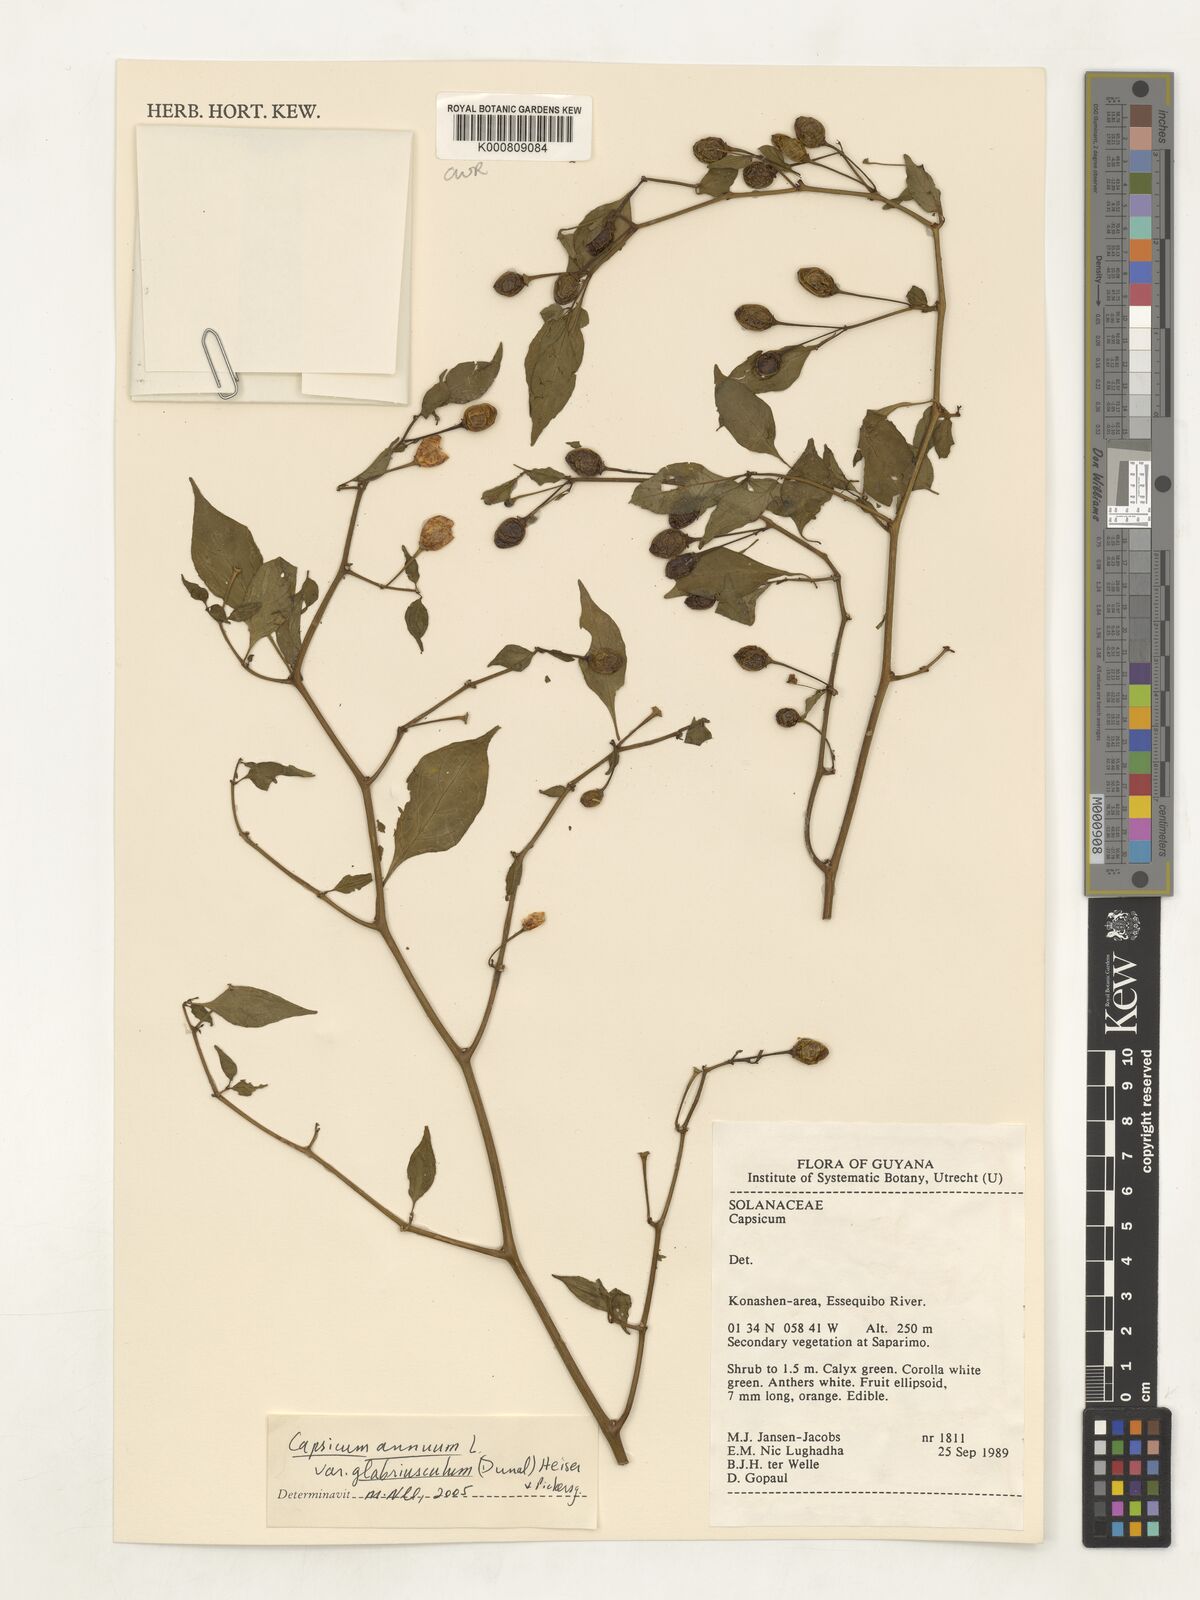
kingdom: Plantae
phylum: Tracheophyta
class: Magnoliopsida
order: Solanales
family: Solanaceae
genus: Capsicum
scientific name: Capsicum annuum
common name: Sweet pepper
